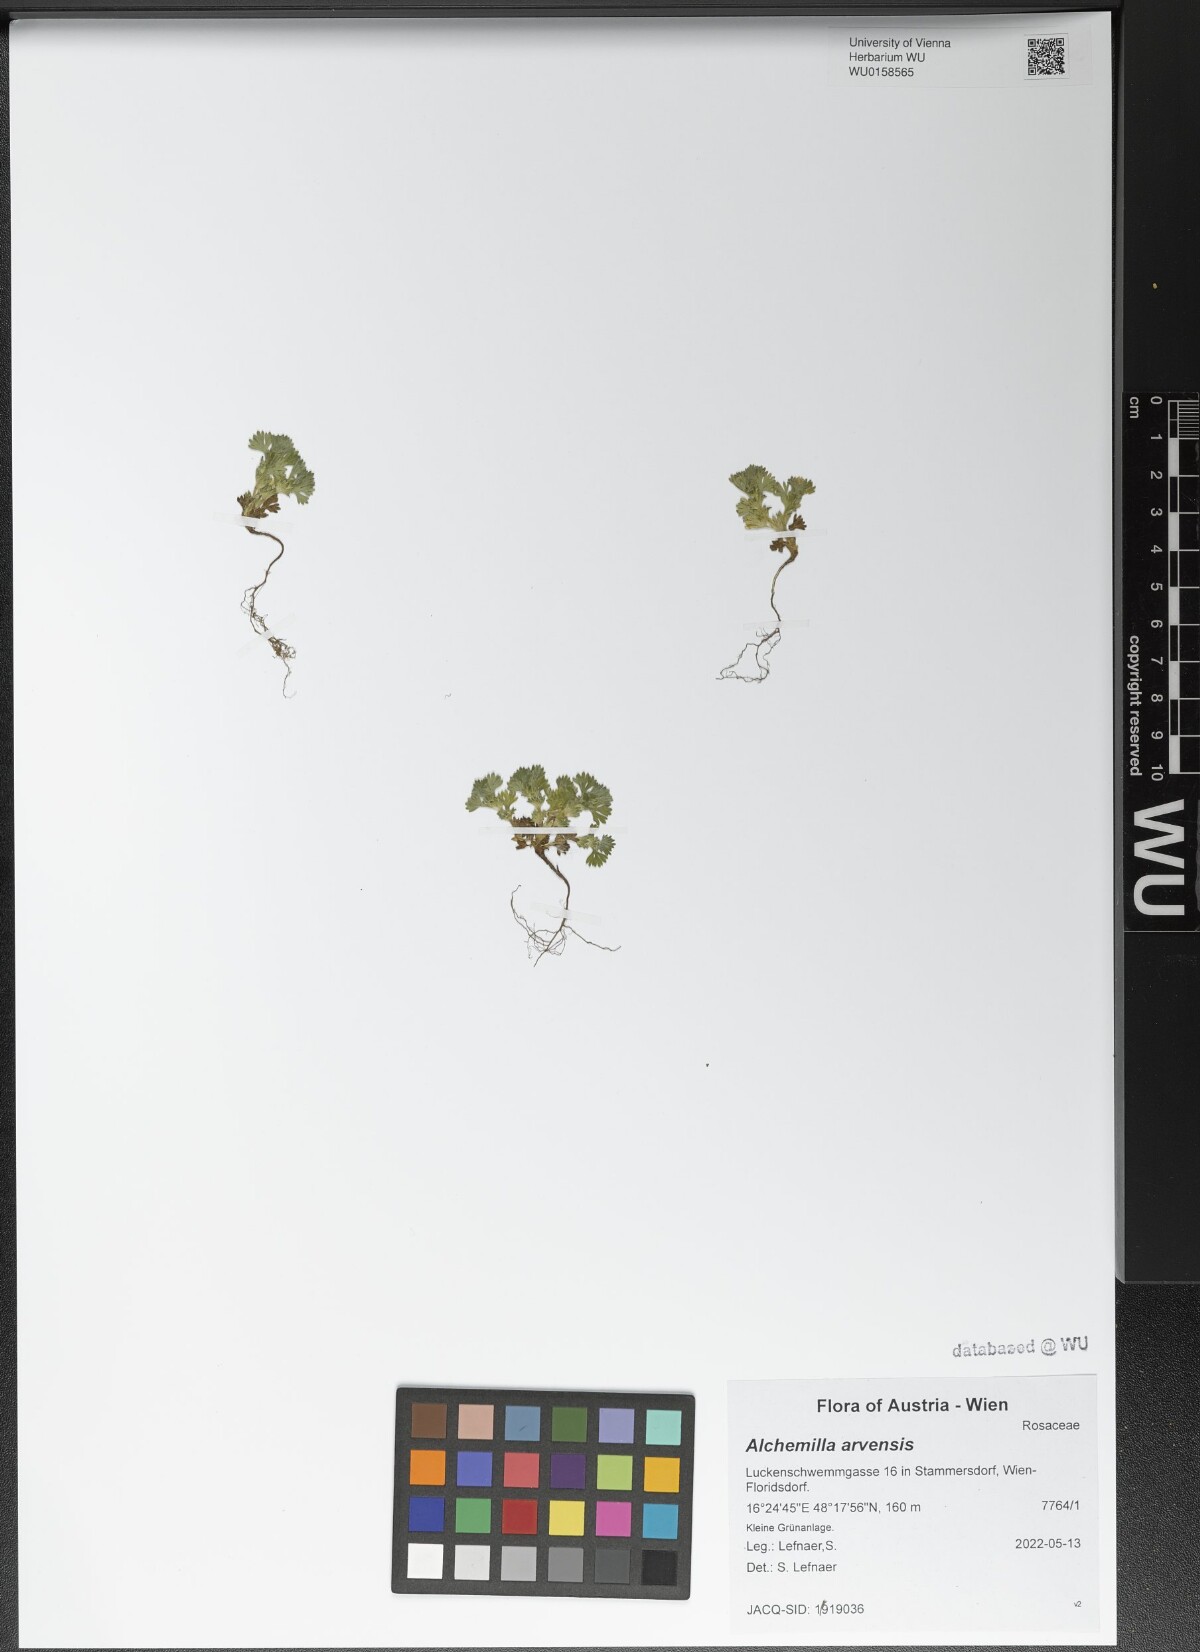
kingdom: Plantae
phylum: Tracheophyta
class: Magnoliopsida
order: Rosales
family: Rosaceae
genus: Aphanes
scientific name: Aphanes arvensis
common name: Parsley-piert
